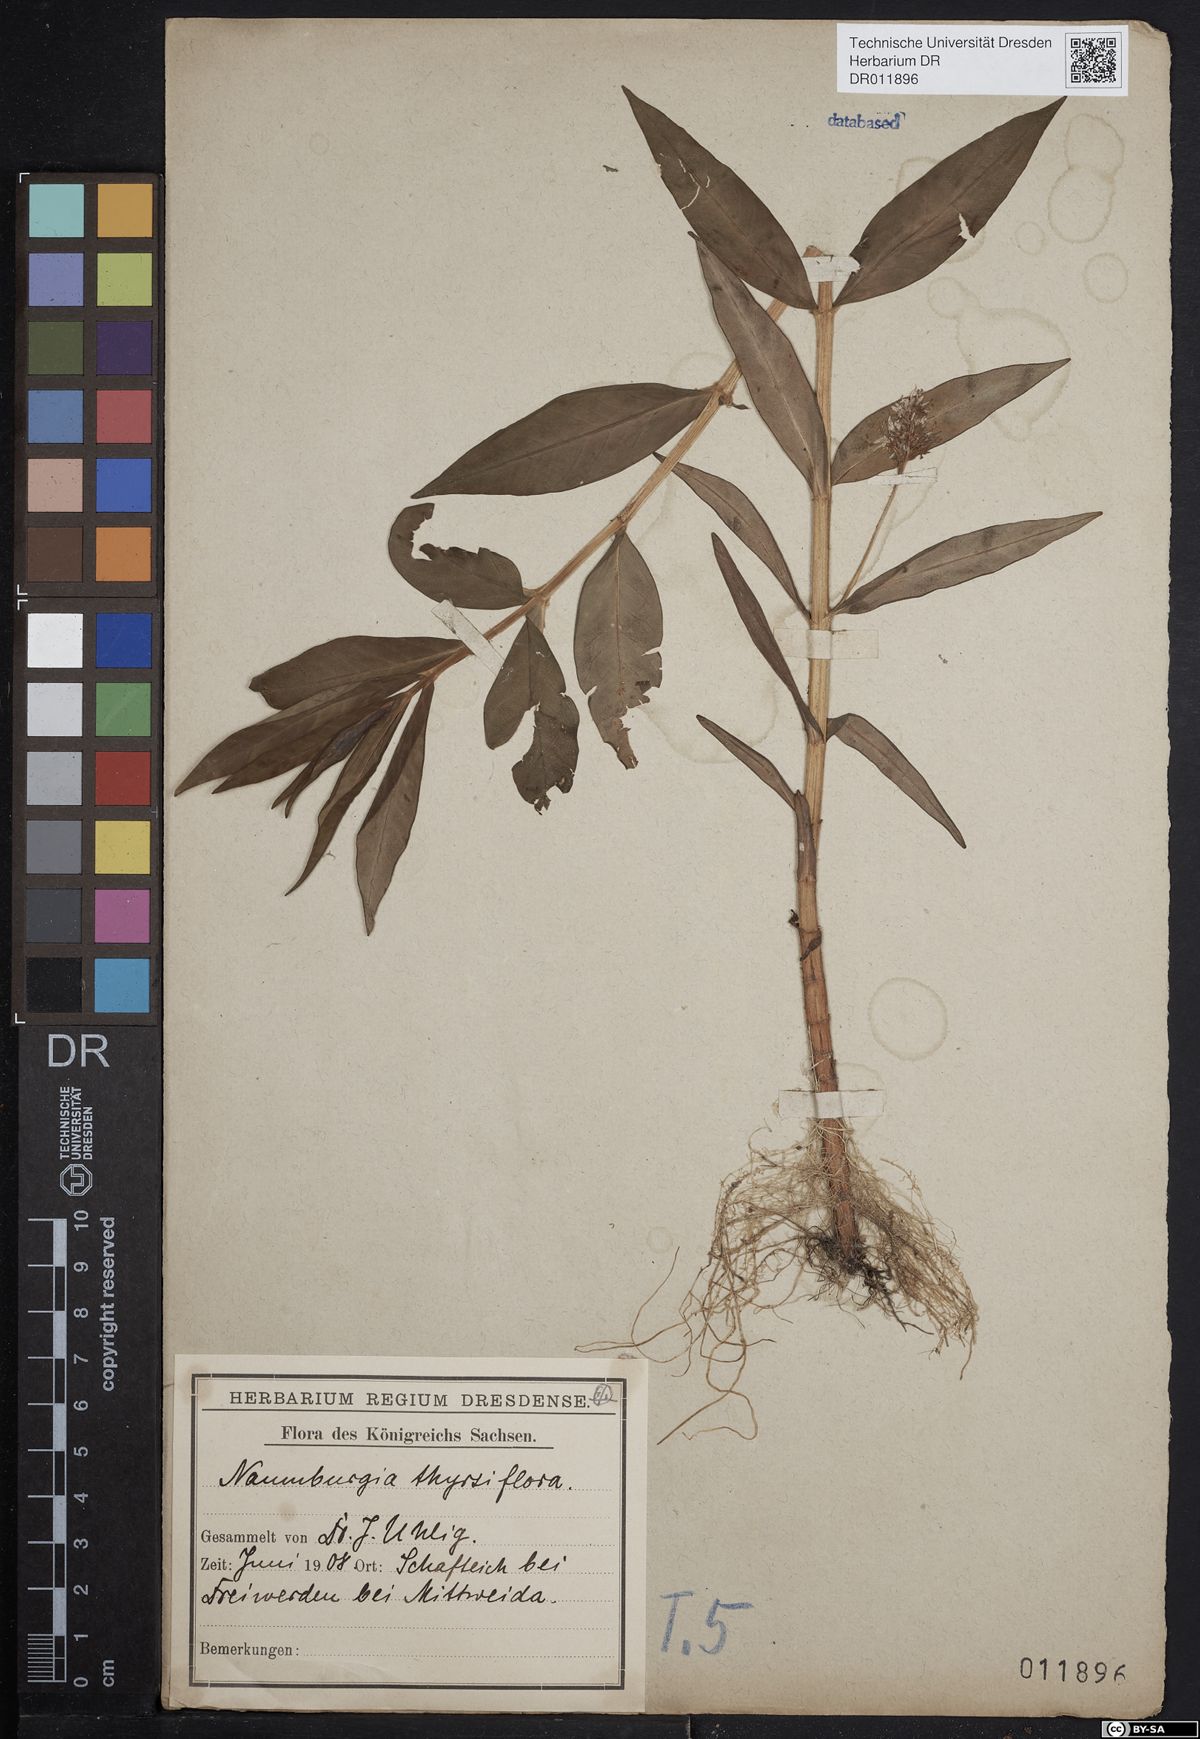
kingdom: Plantae
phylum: Tracheophyta
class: Magnoliopsida
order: Ericales
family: Primulaceae
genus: Lysimachia
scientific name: Lysimachia thyrsiflora
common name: Tufted loosestrife
